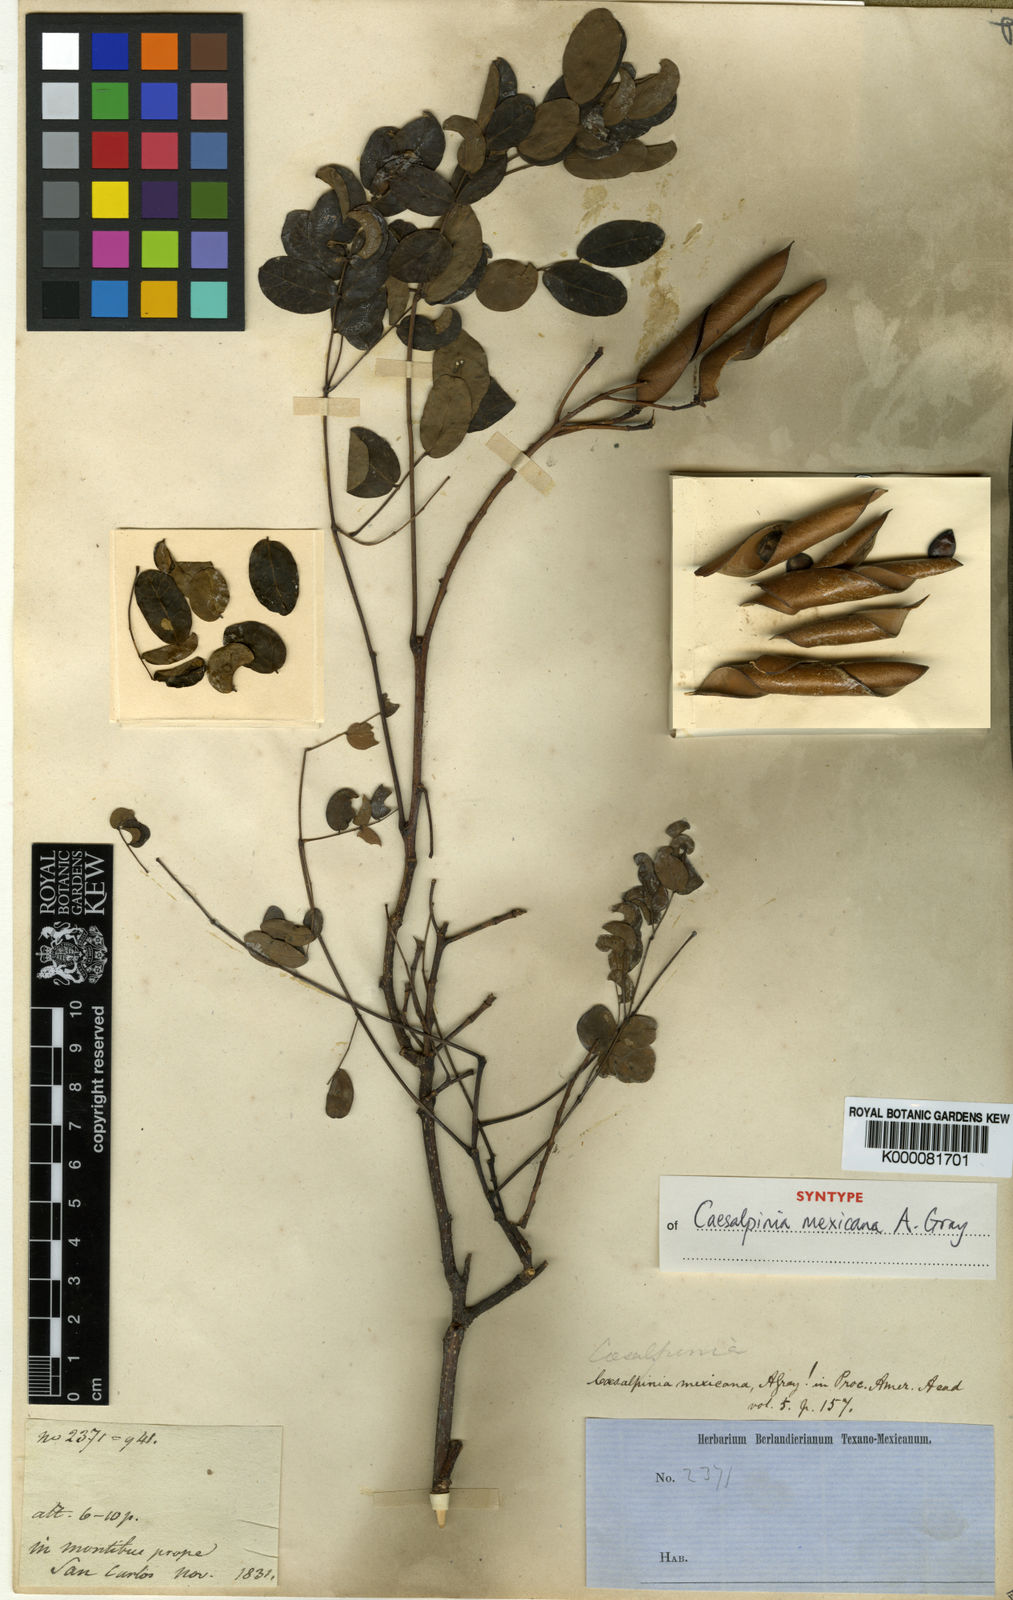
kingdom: Plantae
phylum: Tracheophyta
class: Magnoliopsida
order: Fabales
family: Fabaceae
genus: Erythrostemon
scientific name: Erythrostemon mexicanus
